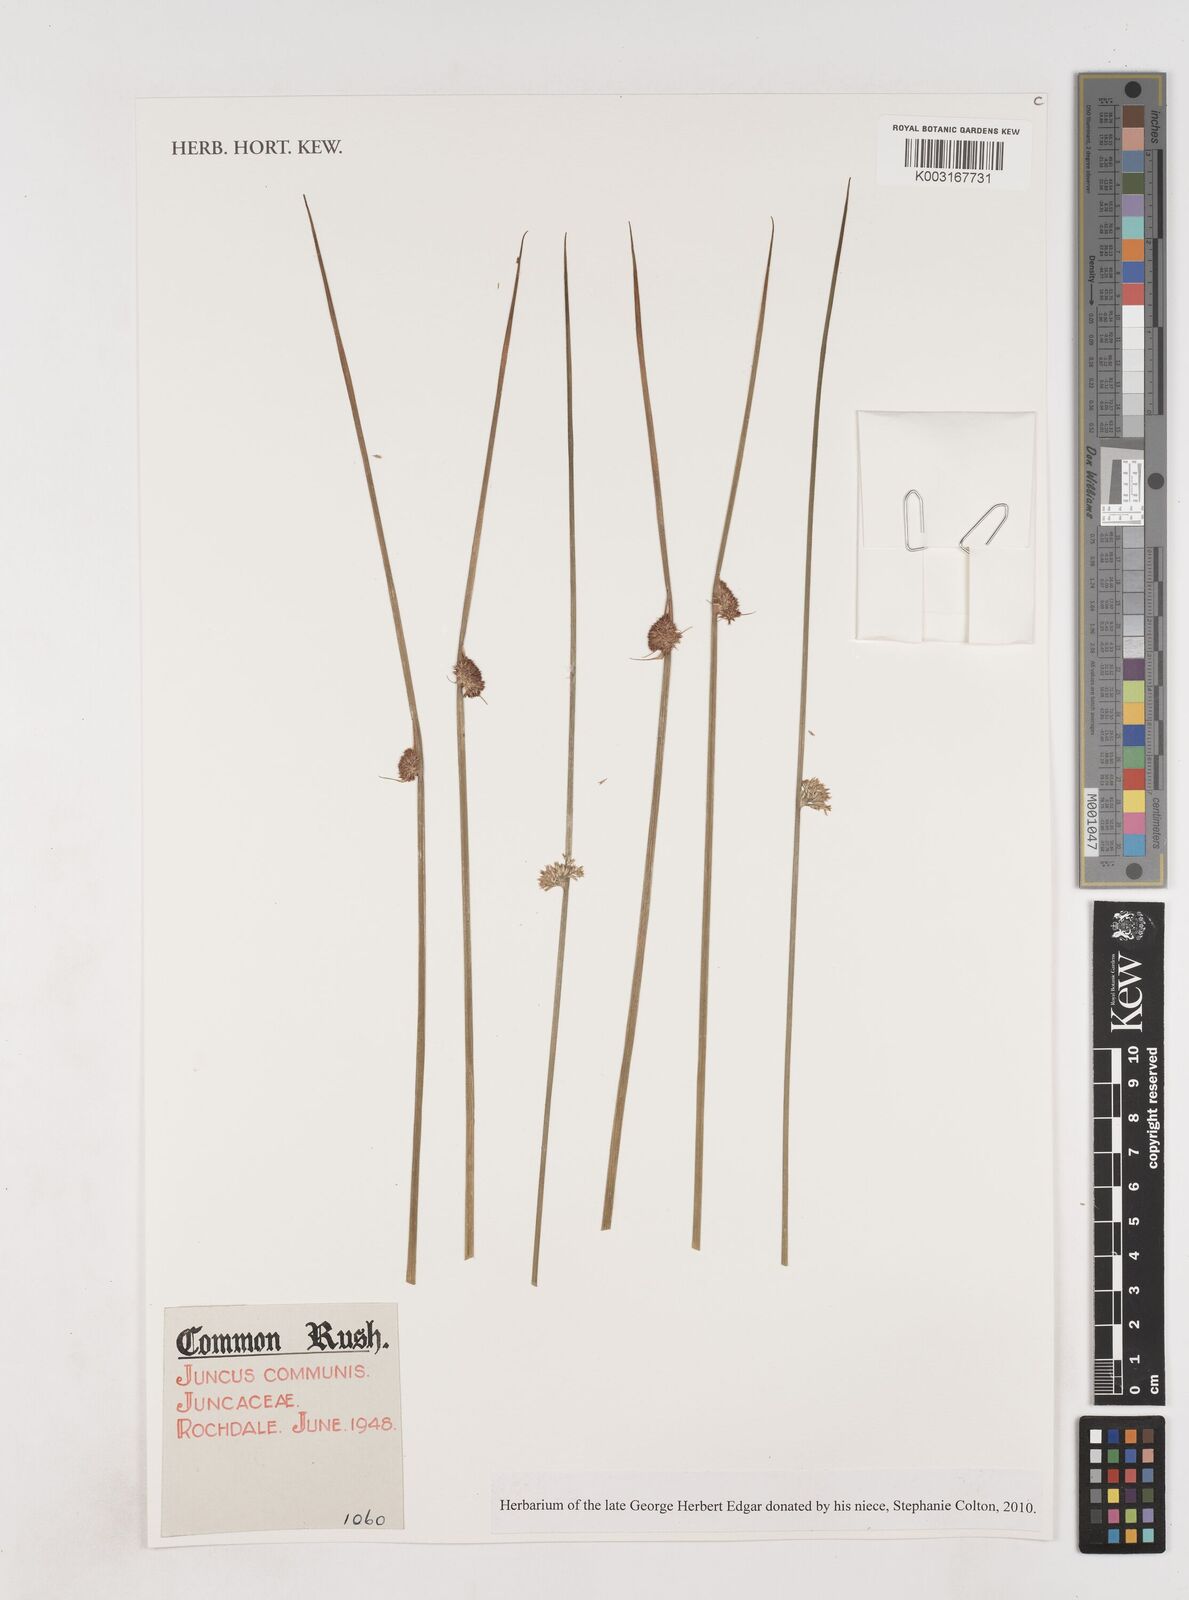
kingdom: Plantae
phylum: Tracheophyta
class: Liliopsida
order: Poales
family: Juncaceae
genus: Juncus
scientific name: Juncus effusus
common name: Soft rush
